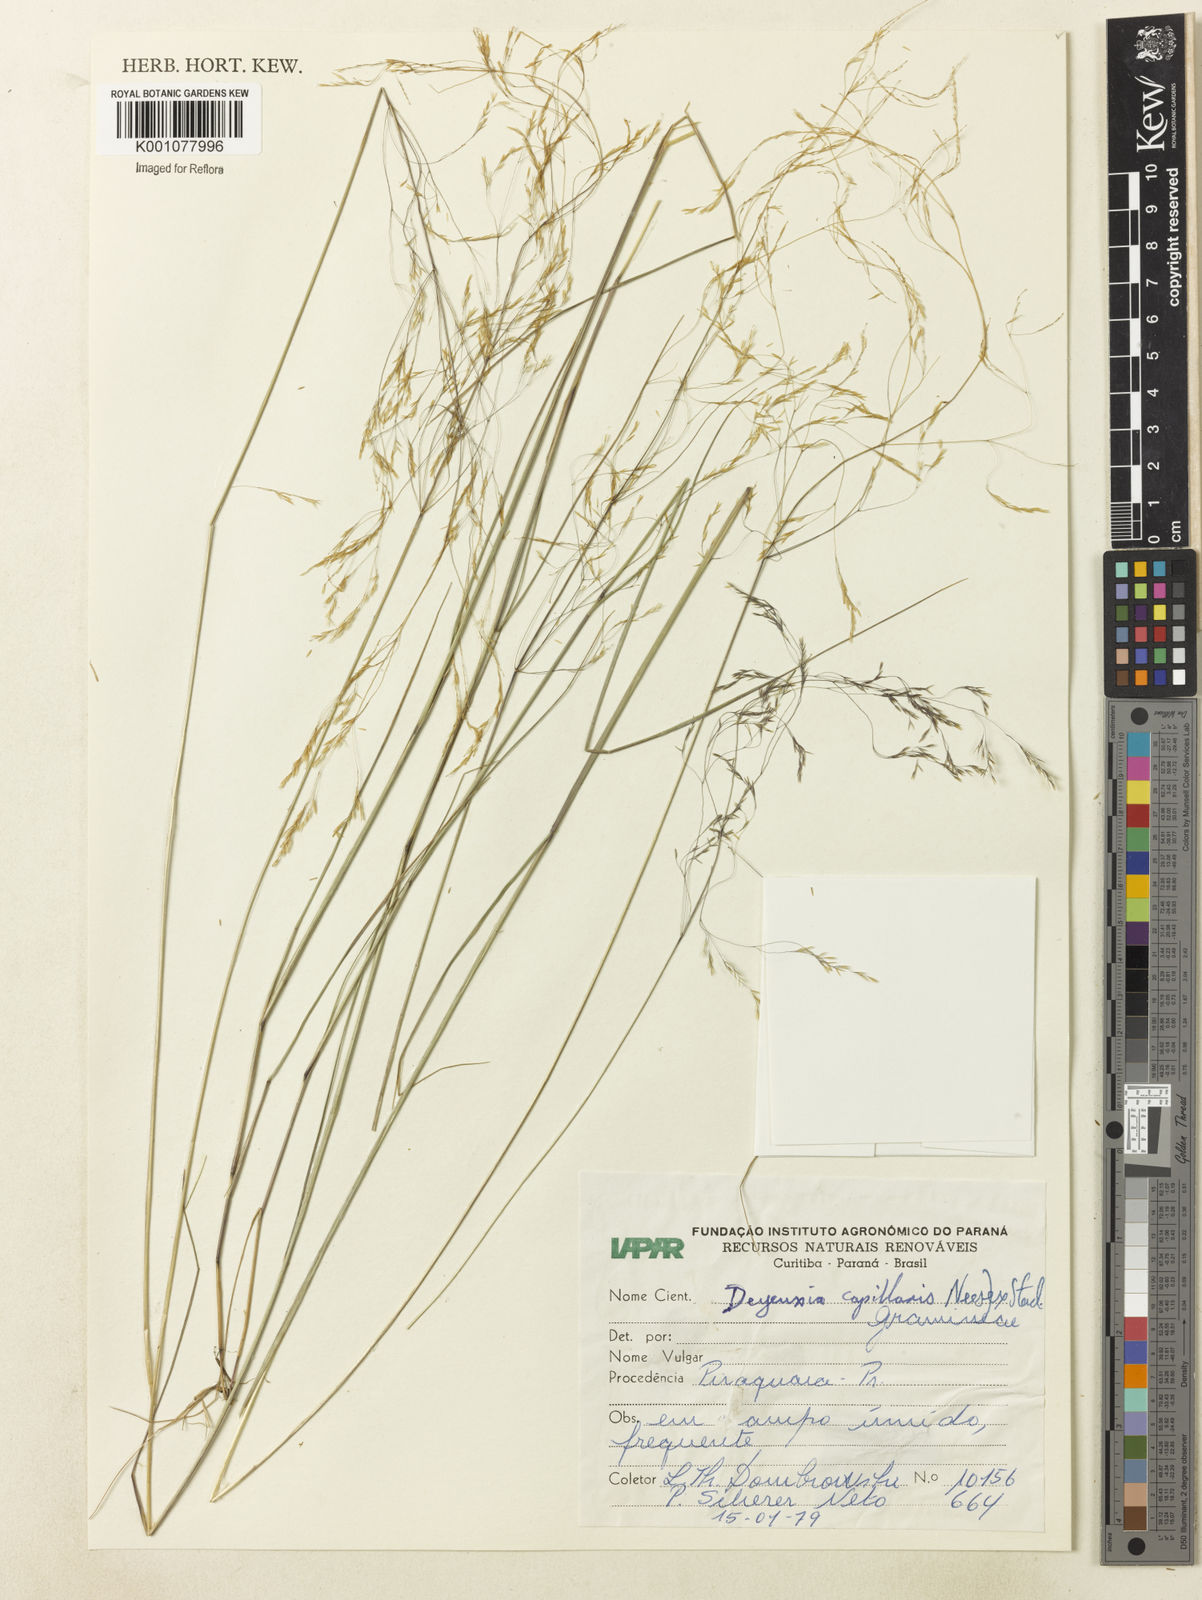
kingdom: Plantae
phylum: Tracheophyta
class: Liliopsida
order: Poales
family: Poaceae
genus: Agrostis
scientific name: Agrostis longiberbis
